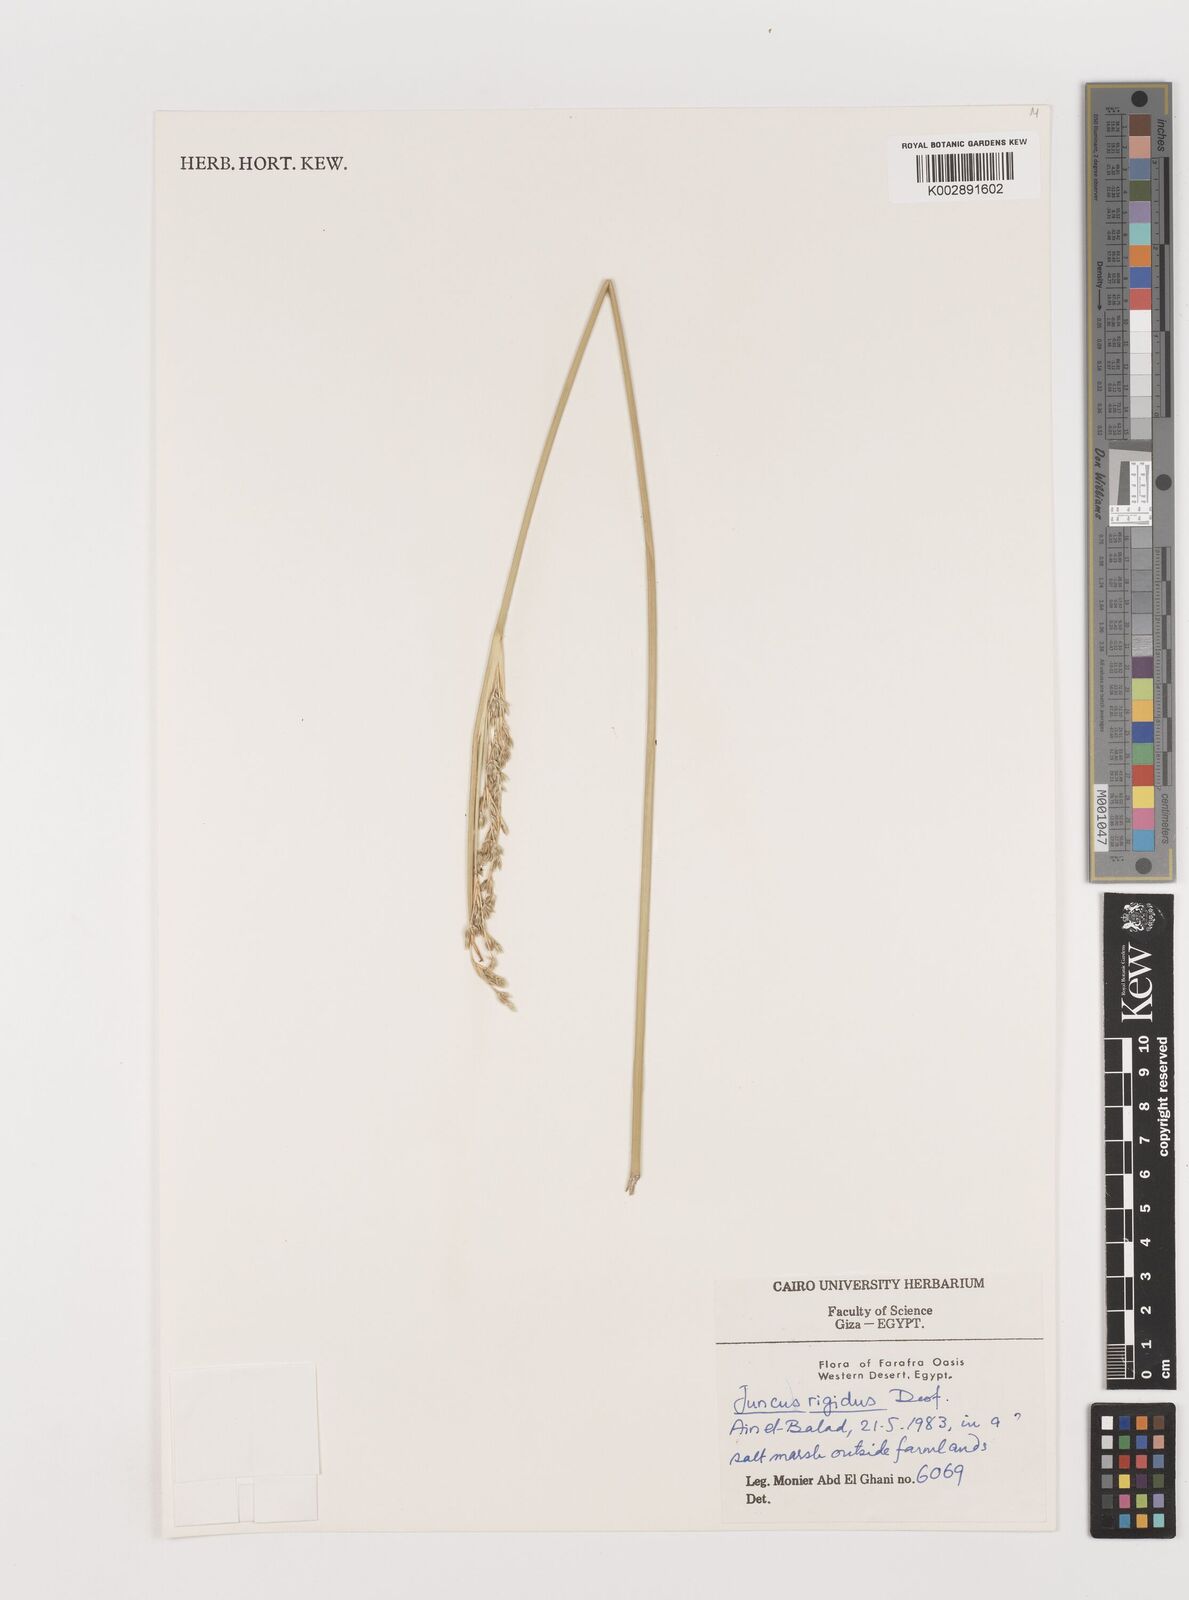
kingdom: Plantae
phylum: Tracheophyta
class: Liliopsida
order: Poales
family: Juncaceae
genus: Juncus
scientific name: Juncus rigidus
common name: Hard sea rush
